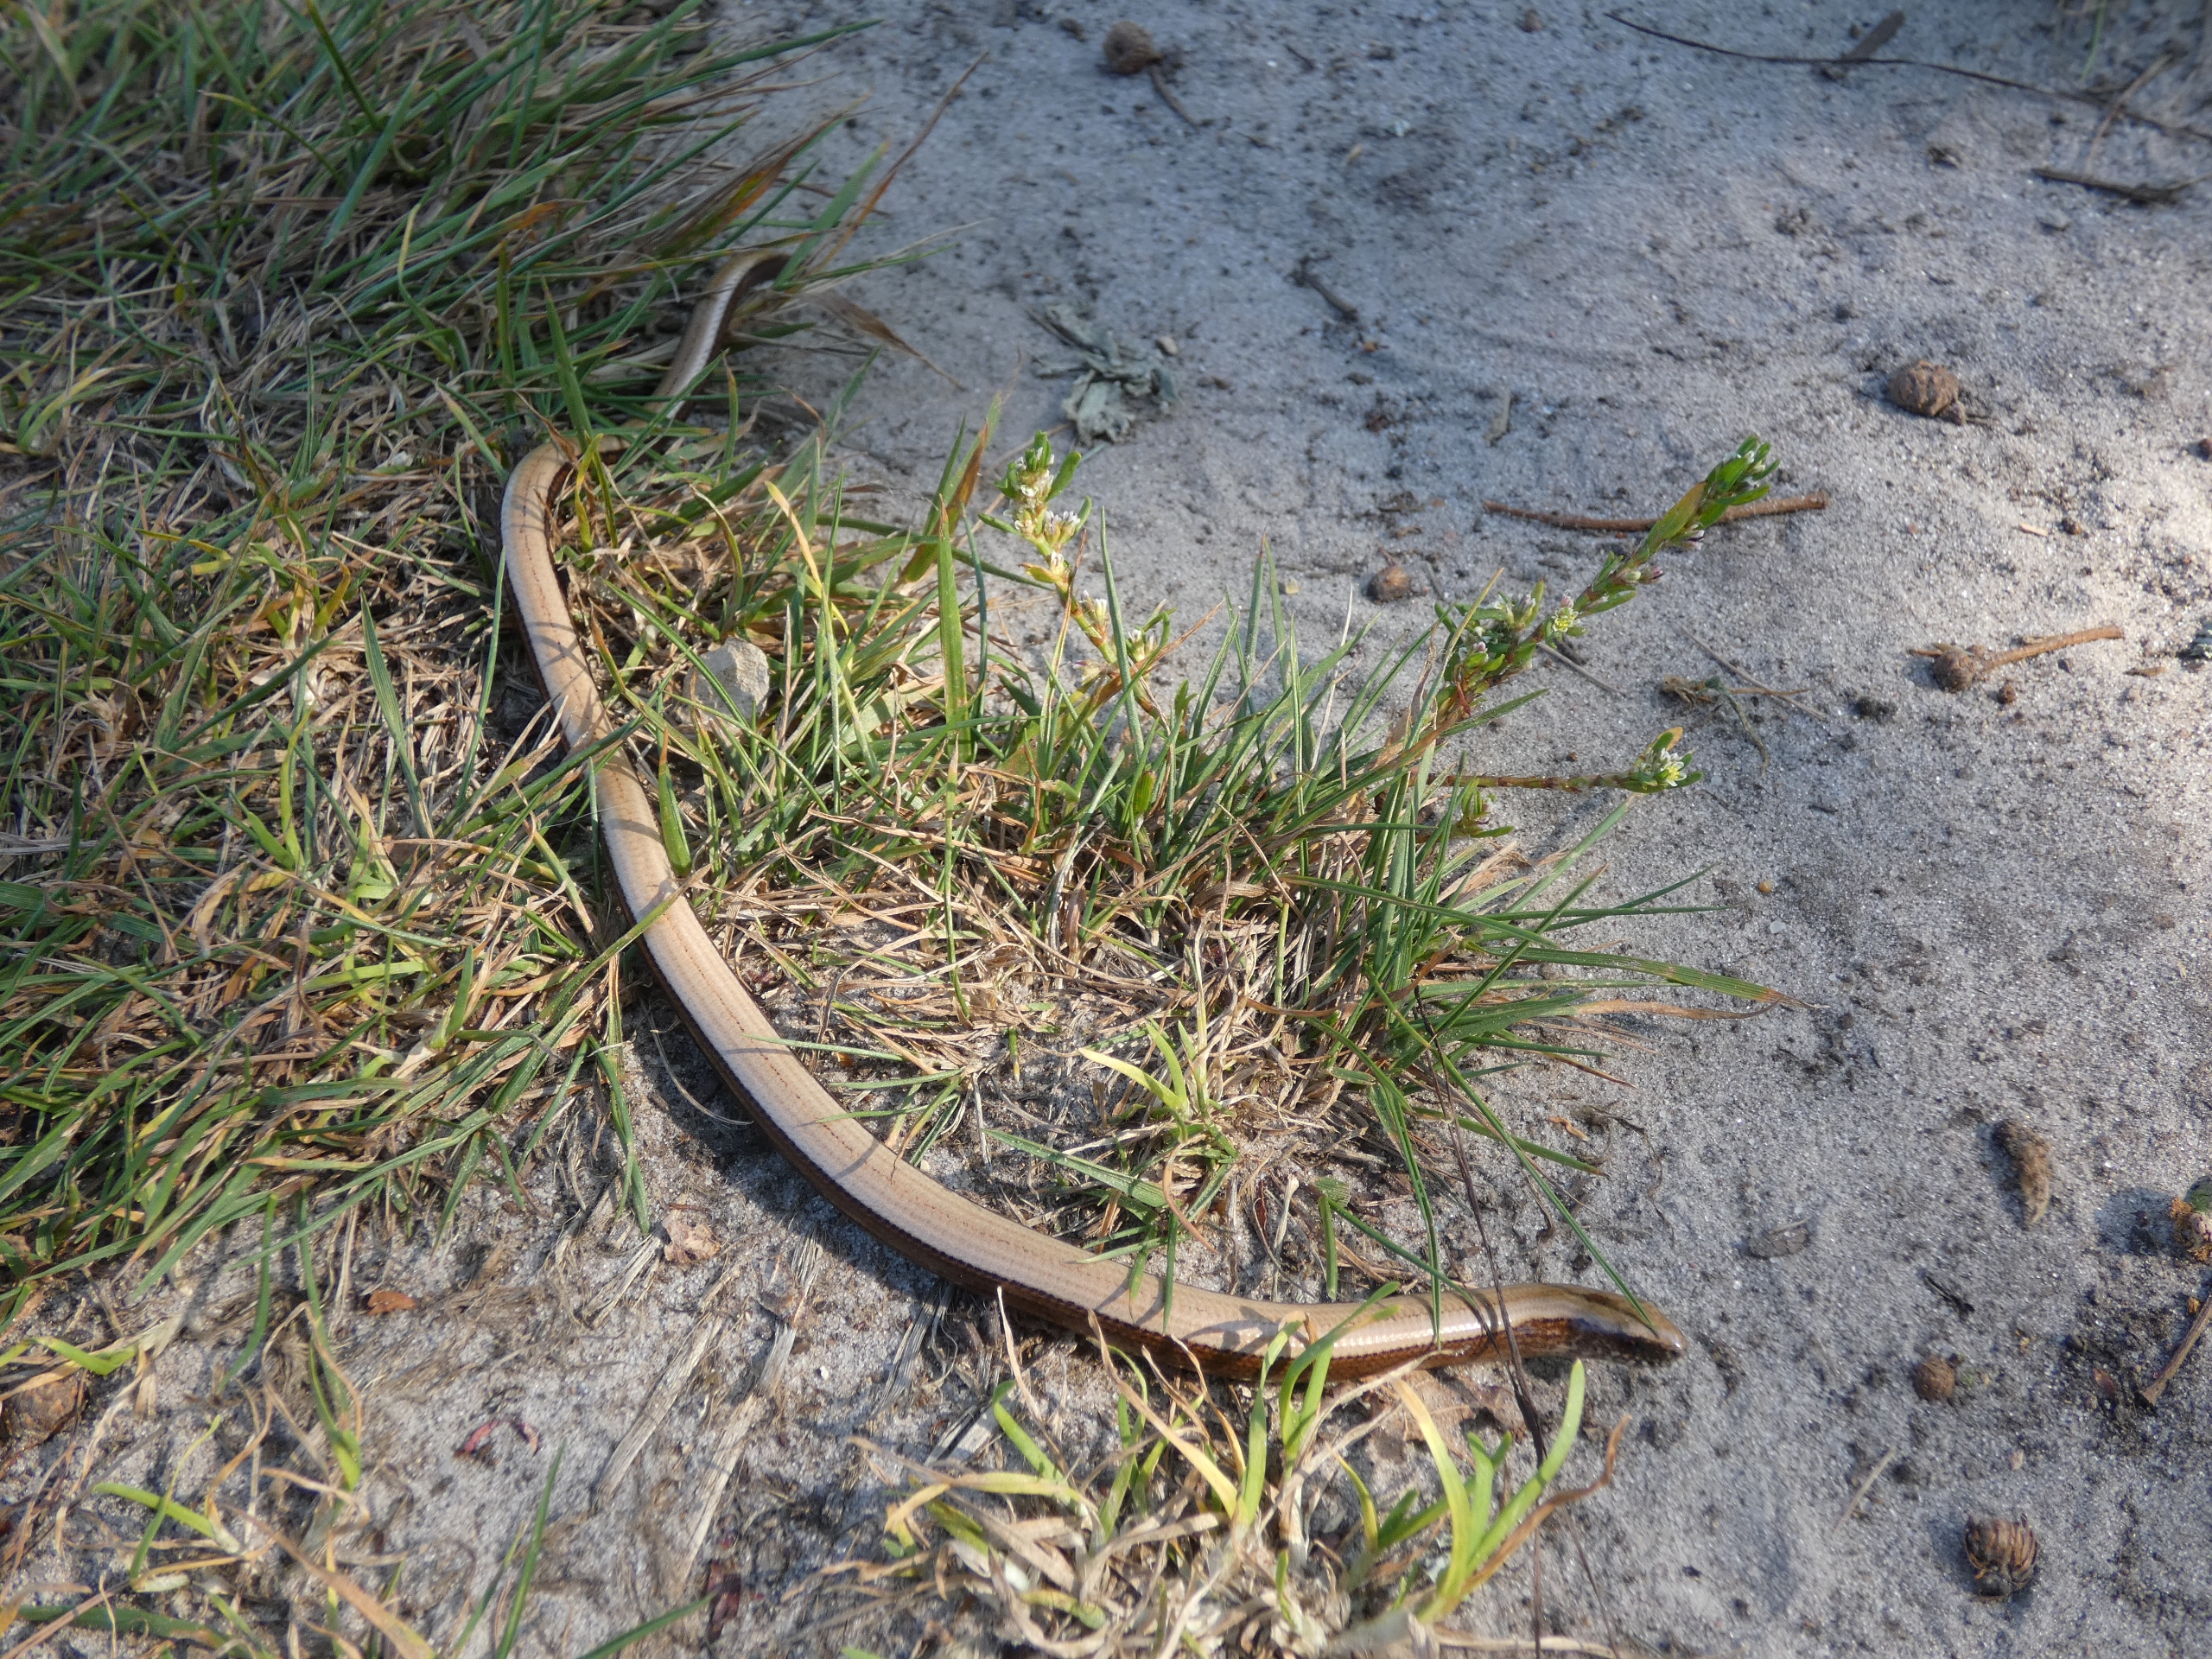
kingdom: Animalia
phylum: Chordata
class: Squamata
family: Anguidae
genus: Anguis
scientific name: Anguis fragilis
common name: Stålorm
